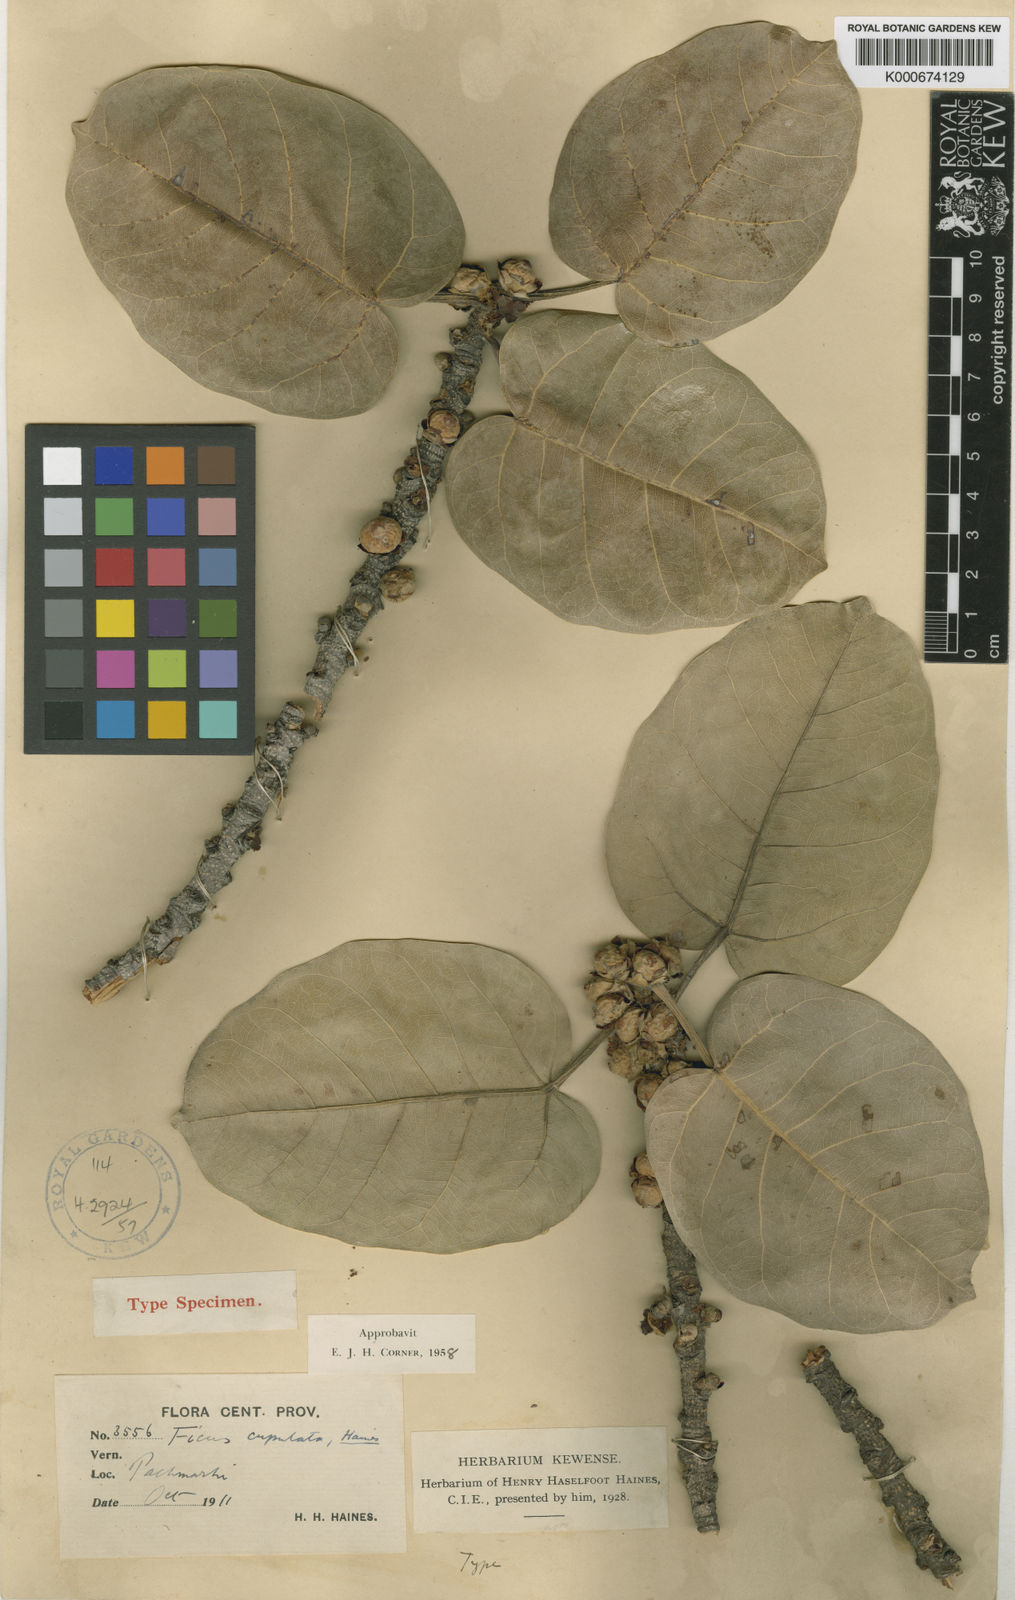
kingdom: Plantae
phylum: Tracheophyta
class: Magnoliopsida
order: Rosales
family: Moraceae
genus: Ficus
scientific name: Ficus cupulata
